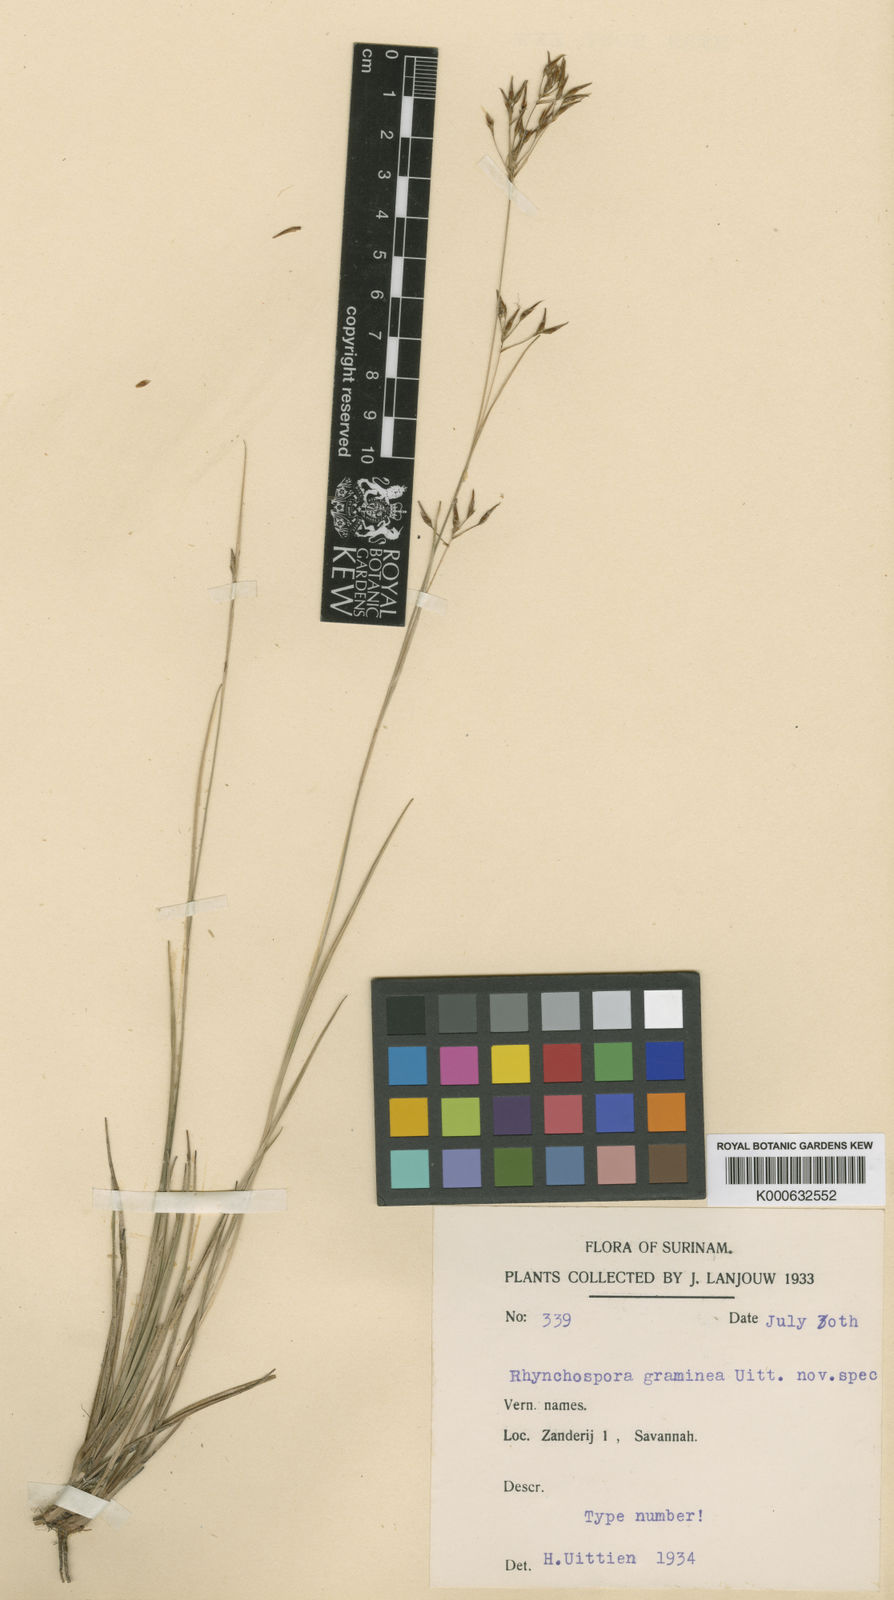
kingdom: Plantae
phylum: Tracheophyta
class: Liliopsida
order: Poales
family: Cyperaceae
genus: Rhynchospora
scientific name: Rhynchospora spruceana
